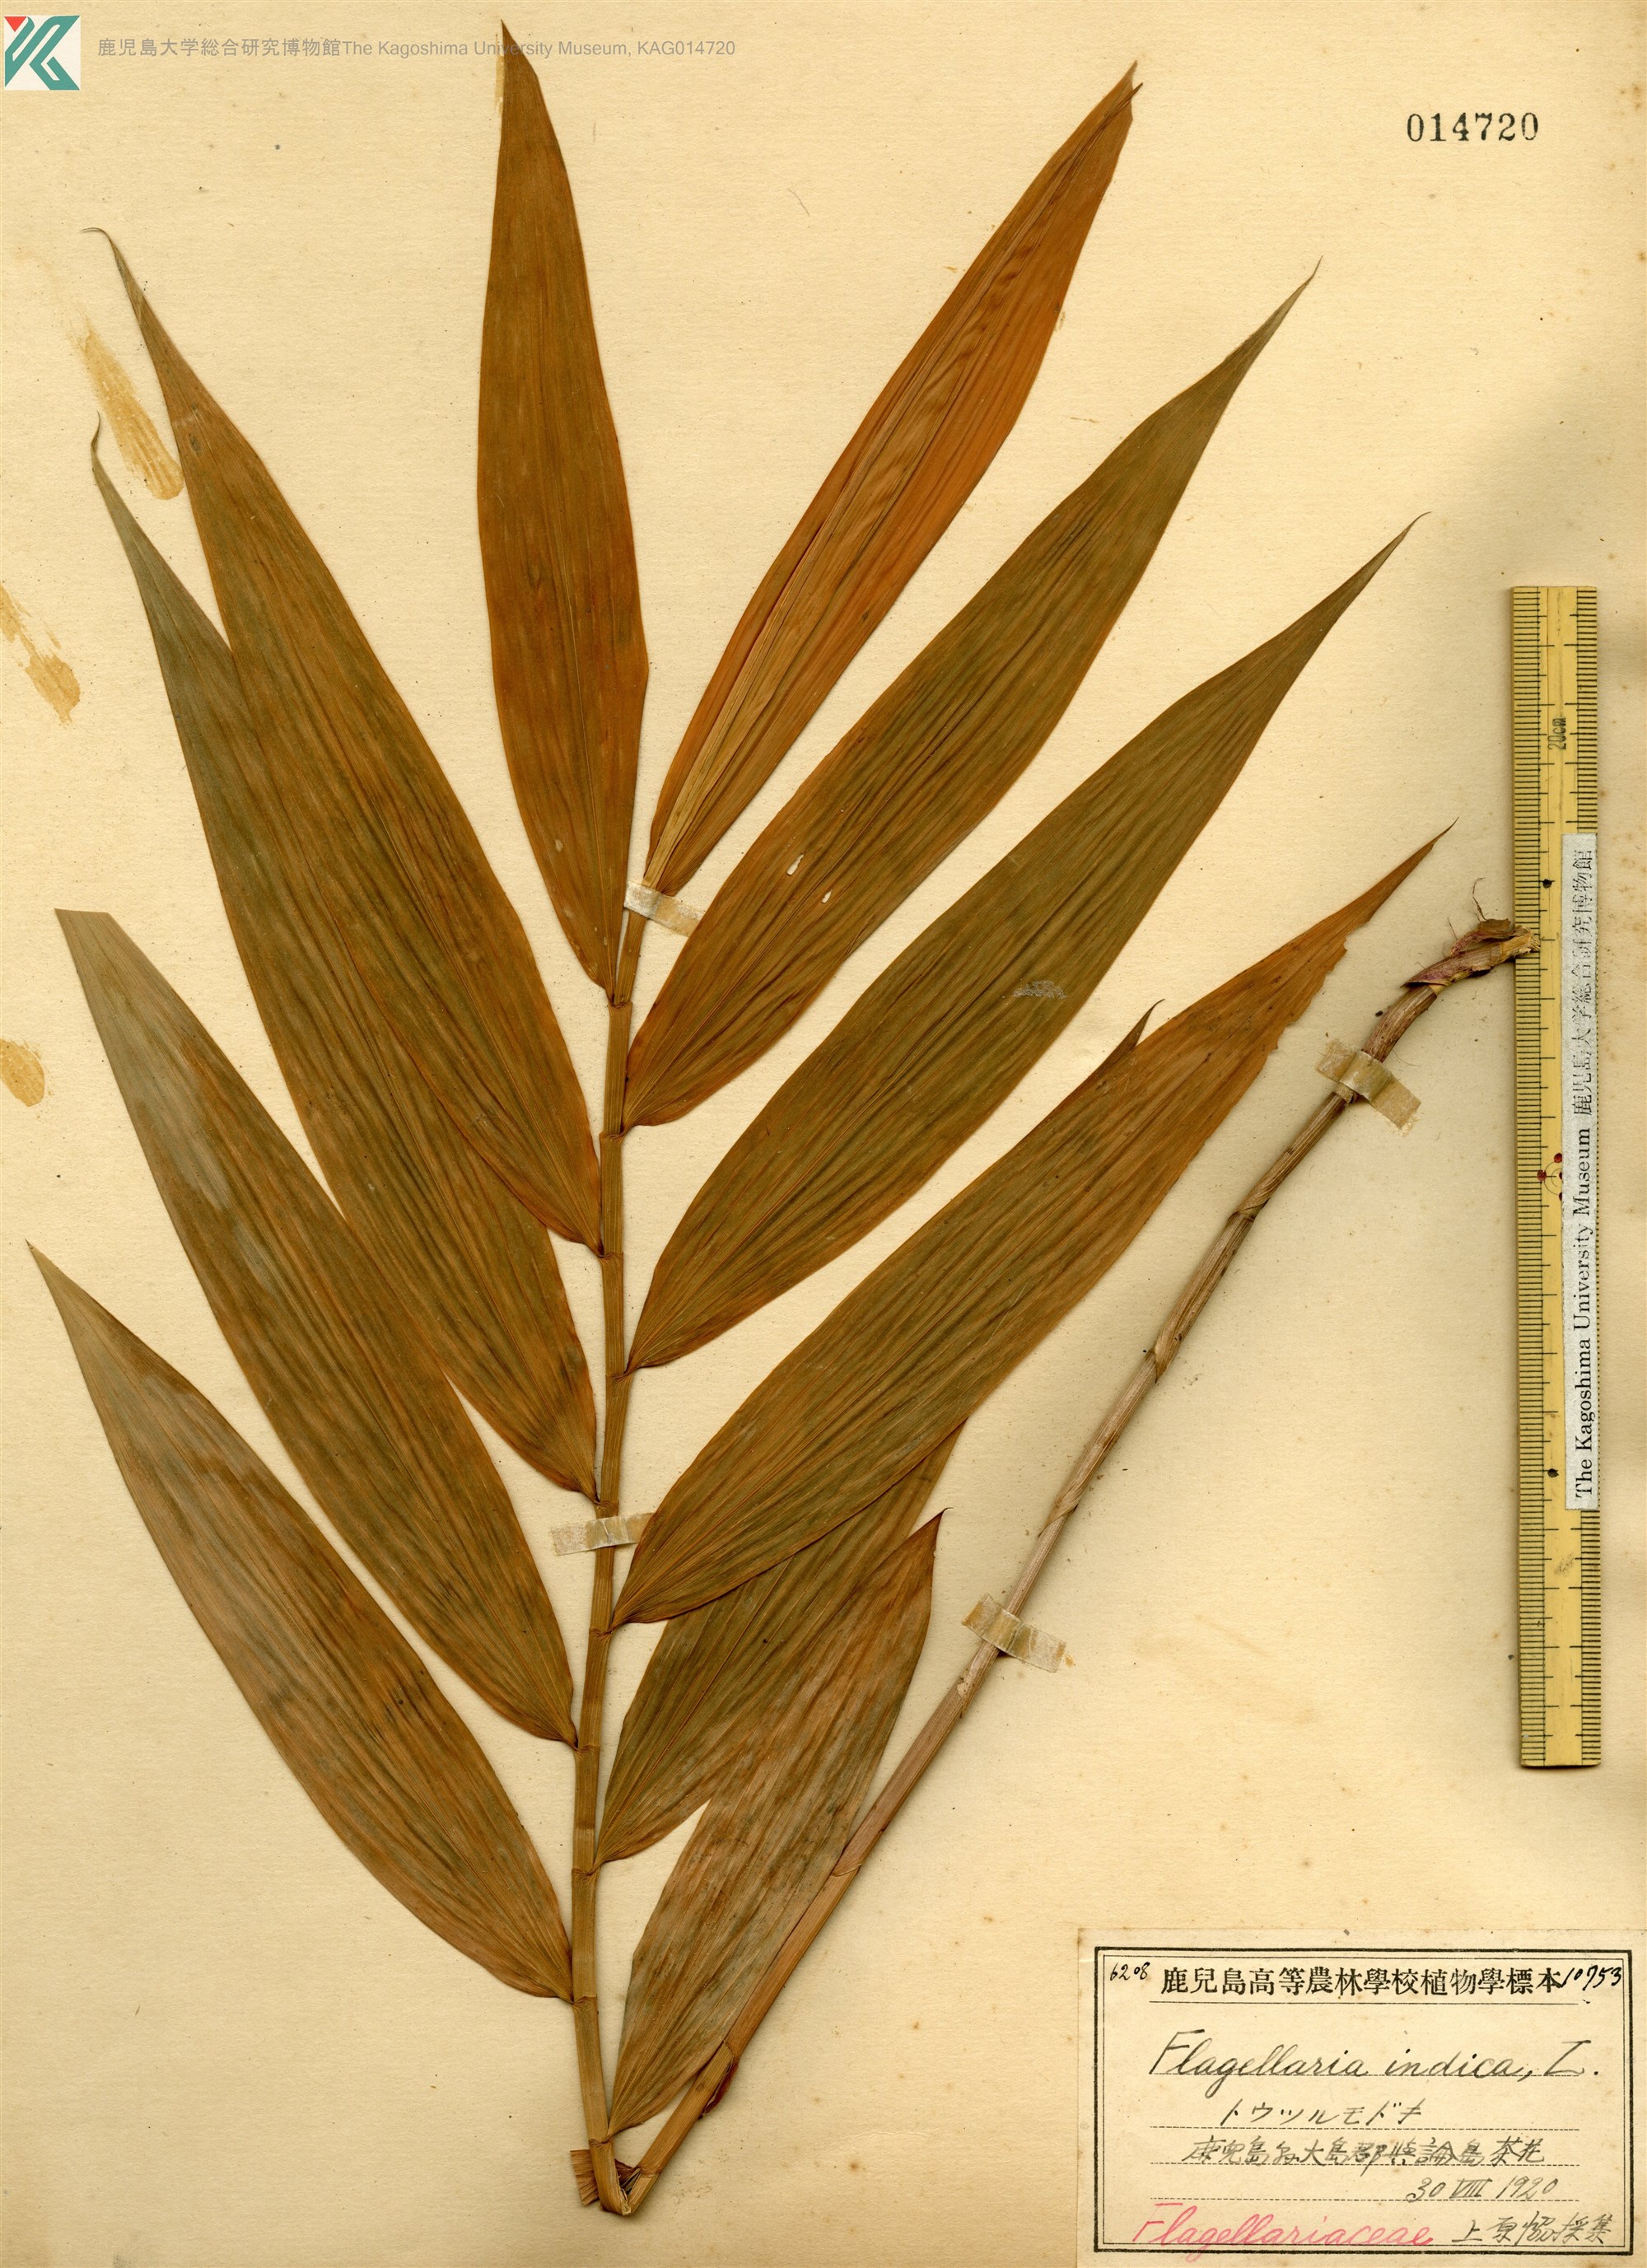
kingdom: Plantae
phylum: Tracheophyta
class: Liliopsida
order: Poales
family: Flagellariaceae
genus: Flagellaria
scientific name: Flagellaria indica
